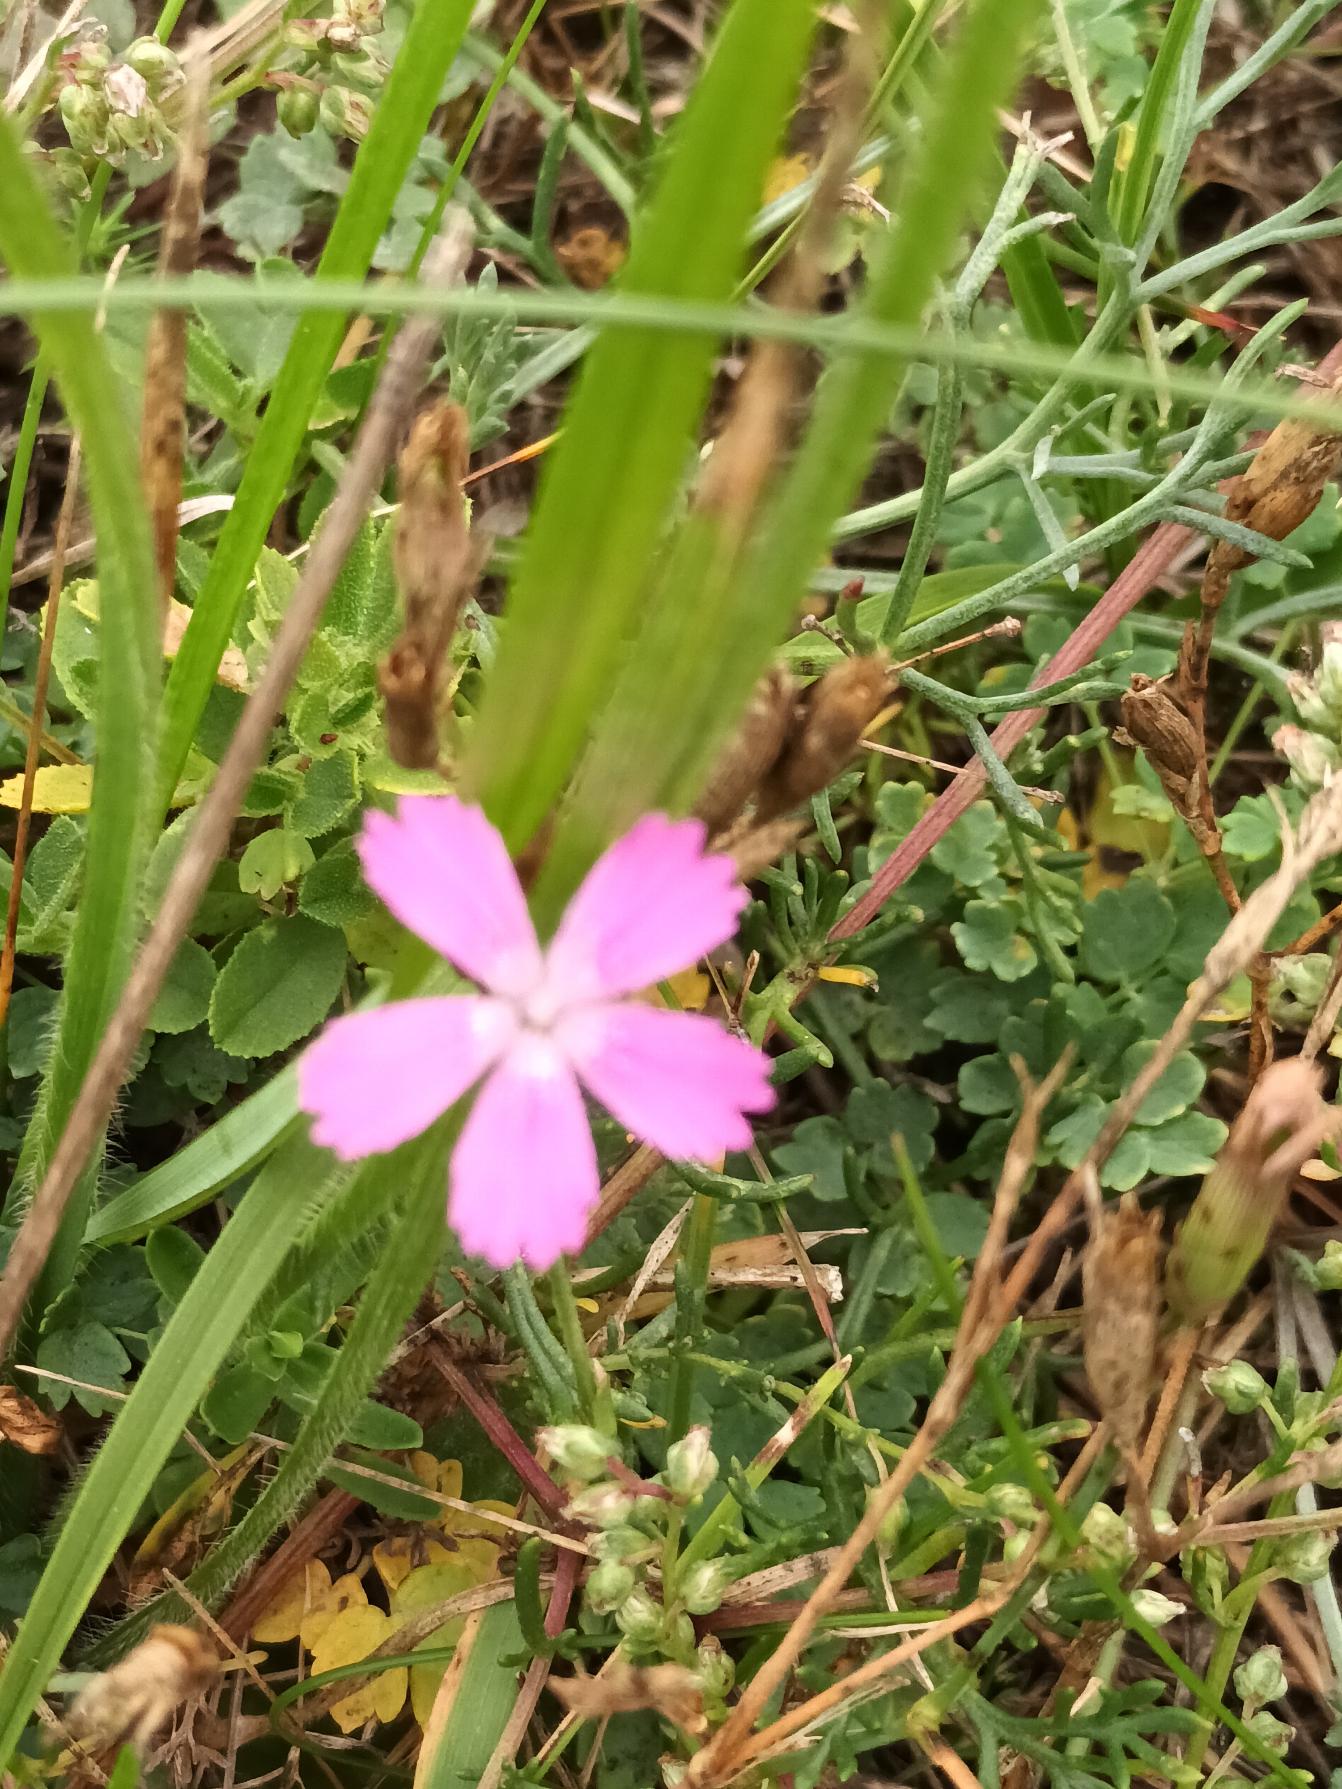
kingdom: Plantae
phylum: Tracheophyta
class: Magnoliopsida
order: Caryophyllales
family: Caryophyllaceae
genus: Dianthus
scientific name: Dianthus deltoides
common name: Bakke-nellike
